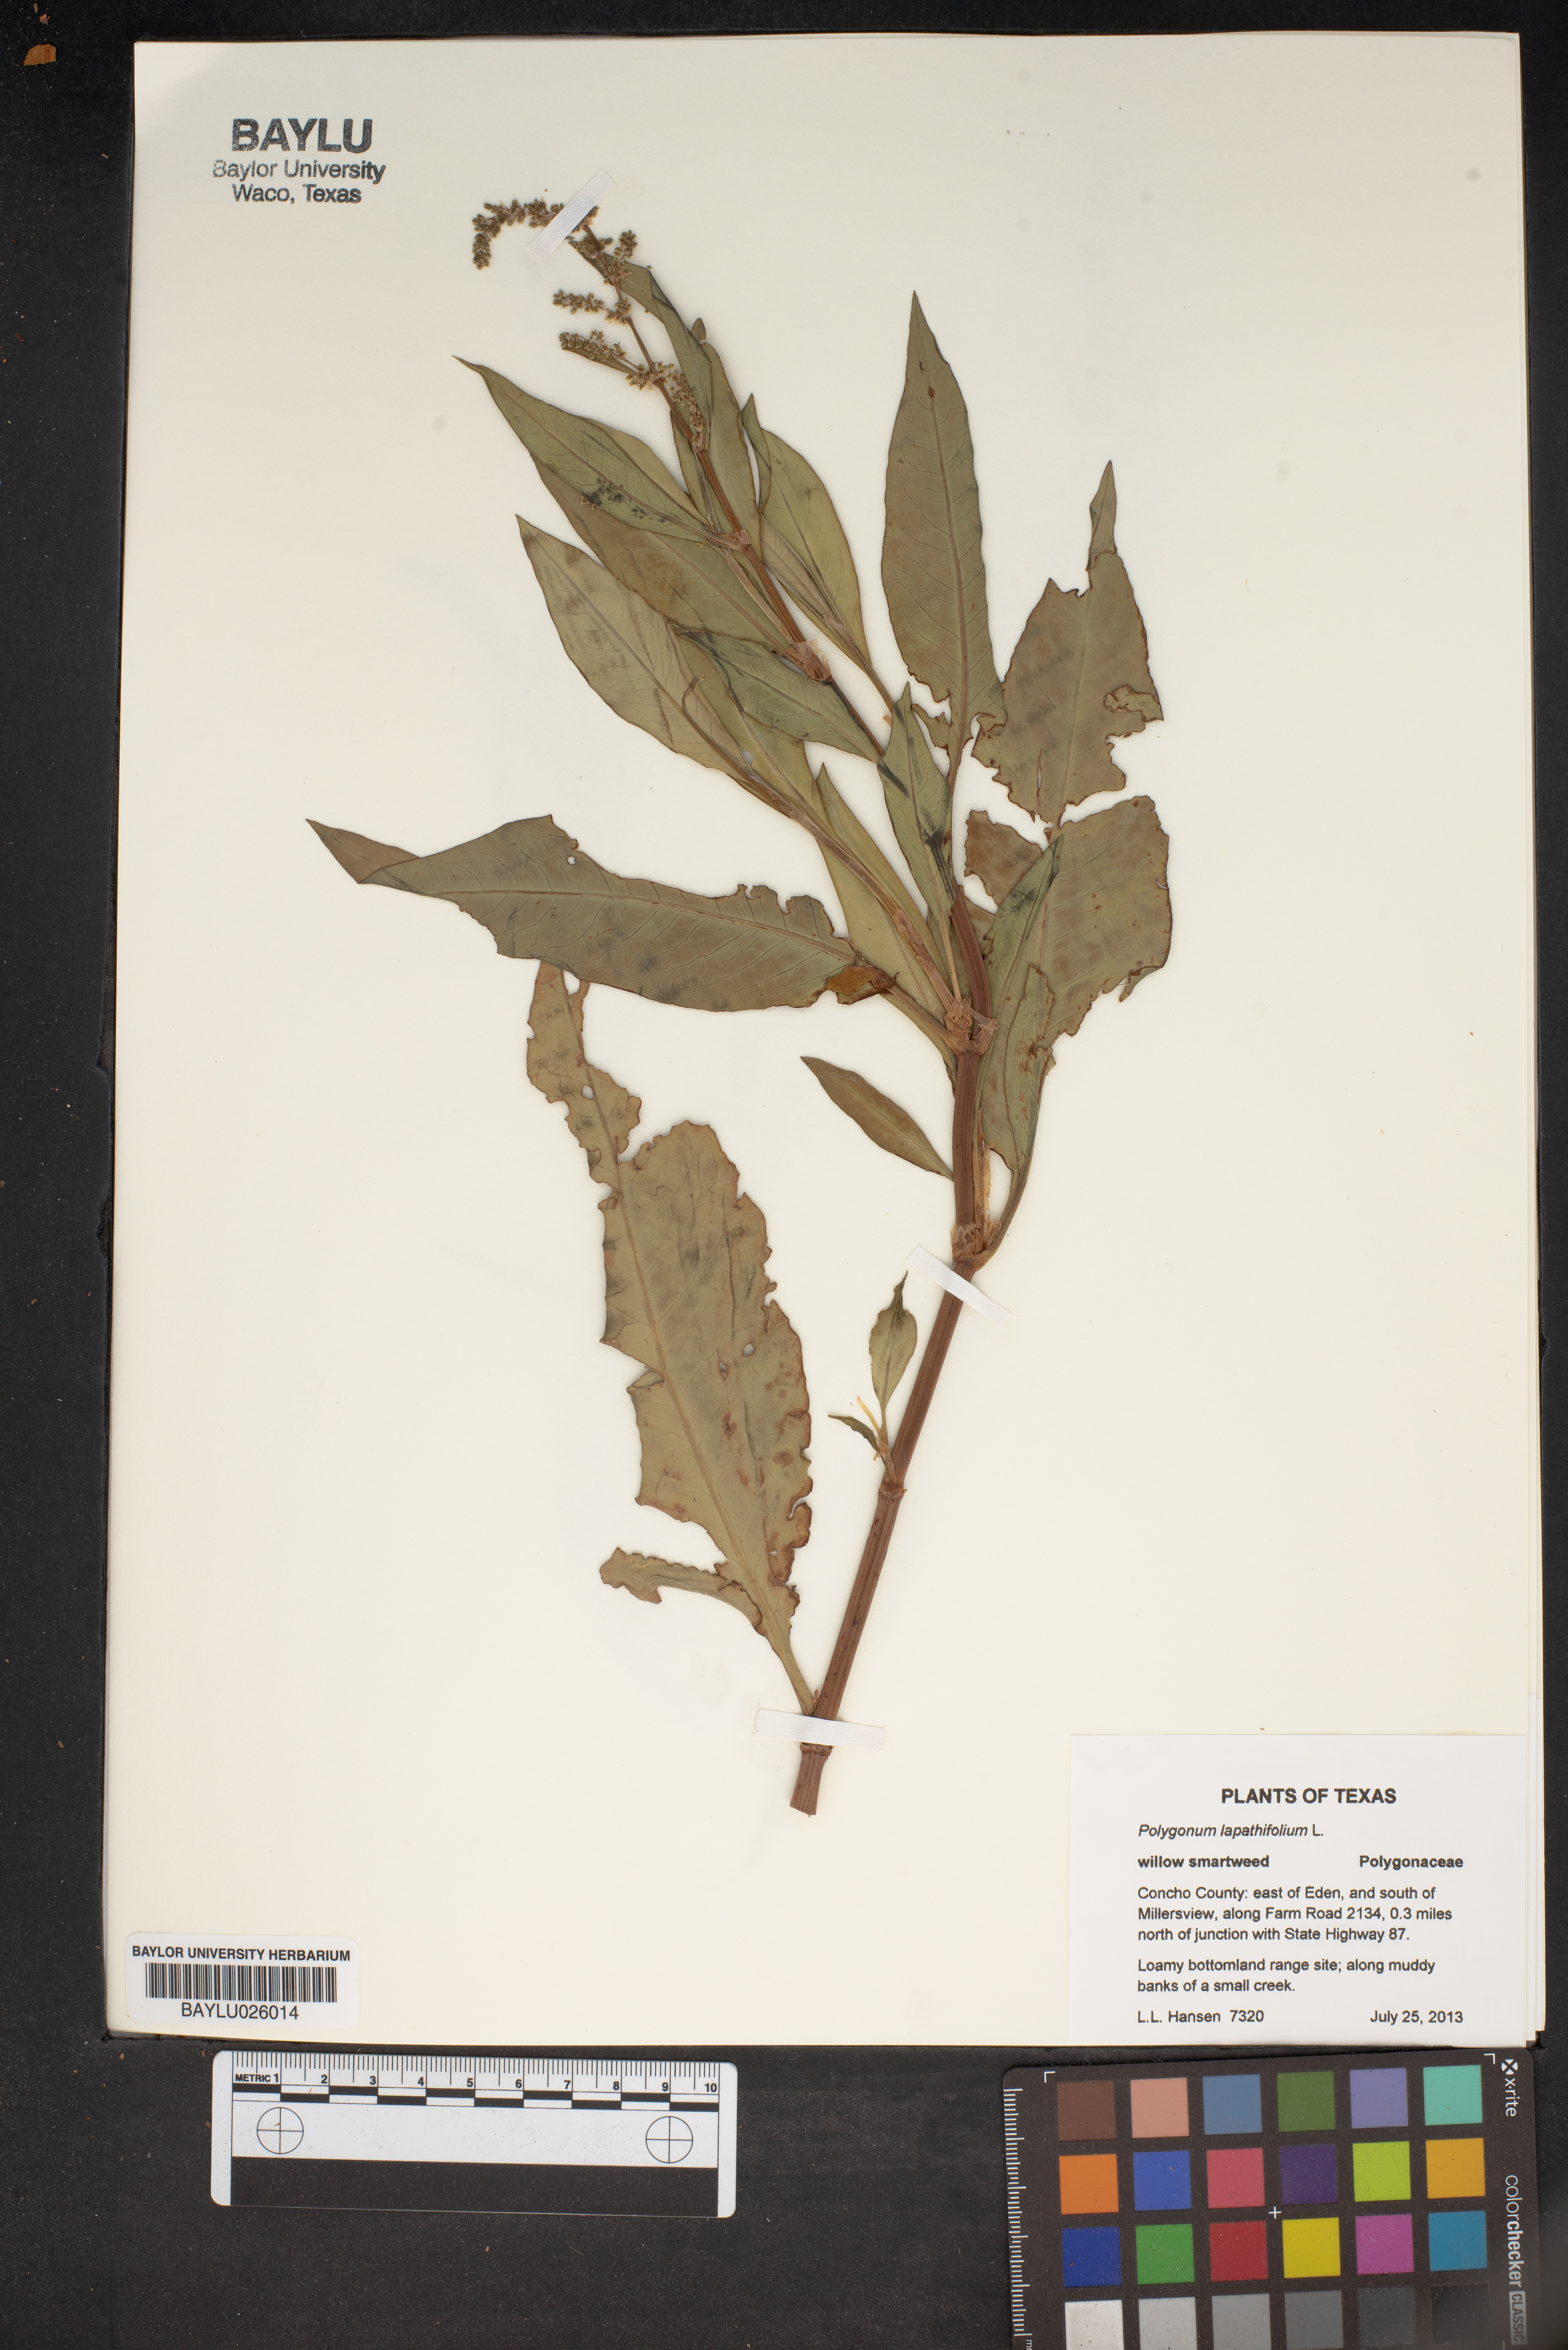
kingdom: Plantae
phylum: Tracheophyta
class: Magnoliopsida
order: Caryophyllales
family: Polygonaceae
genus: Persicaria
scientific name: Persicaria lapathifolia
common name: Curlytop knotweed
